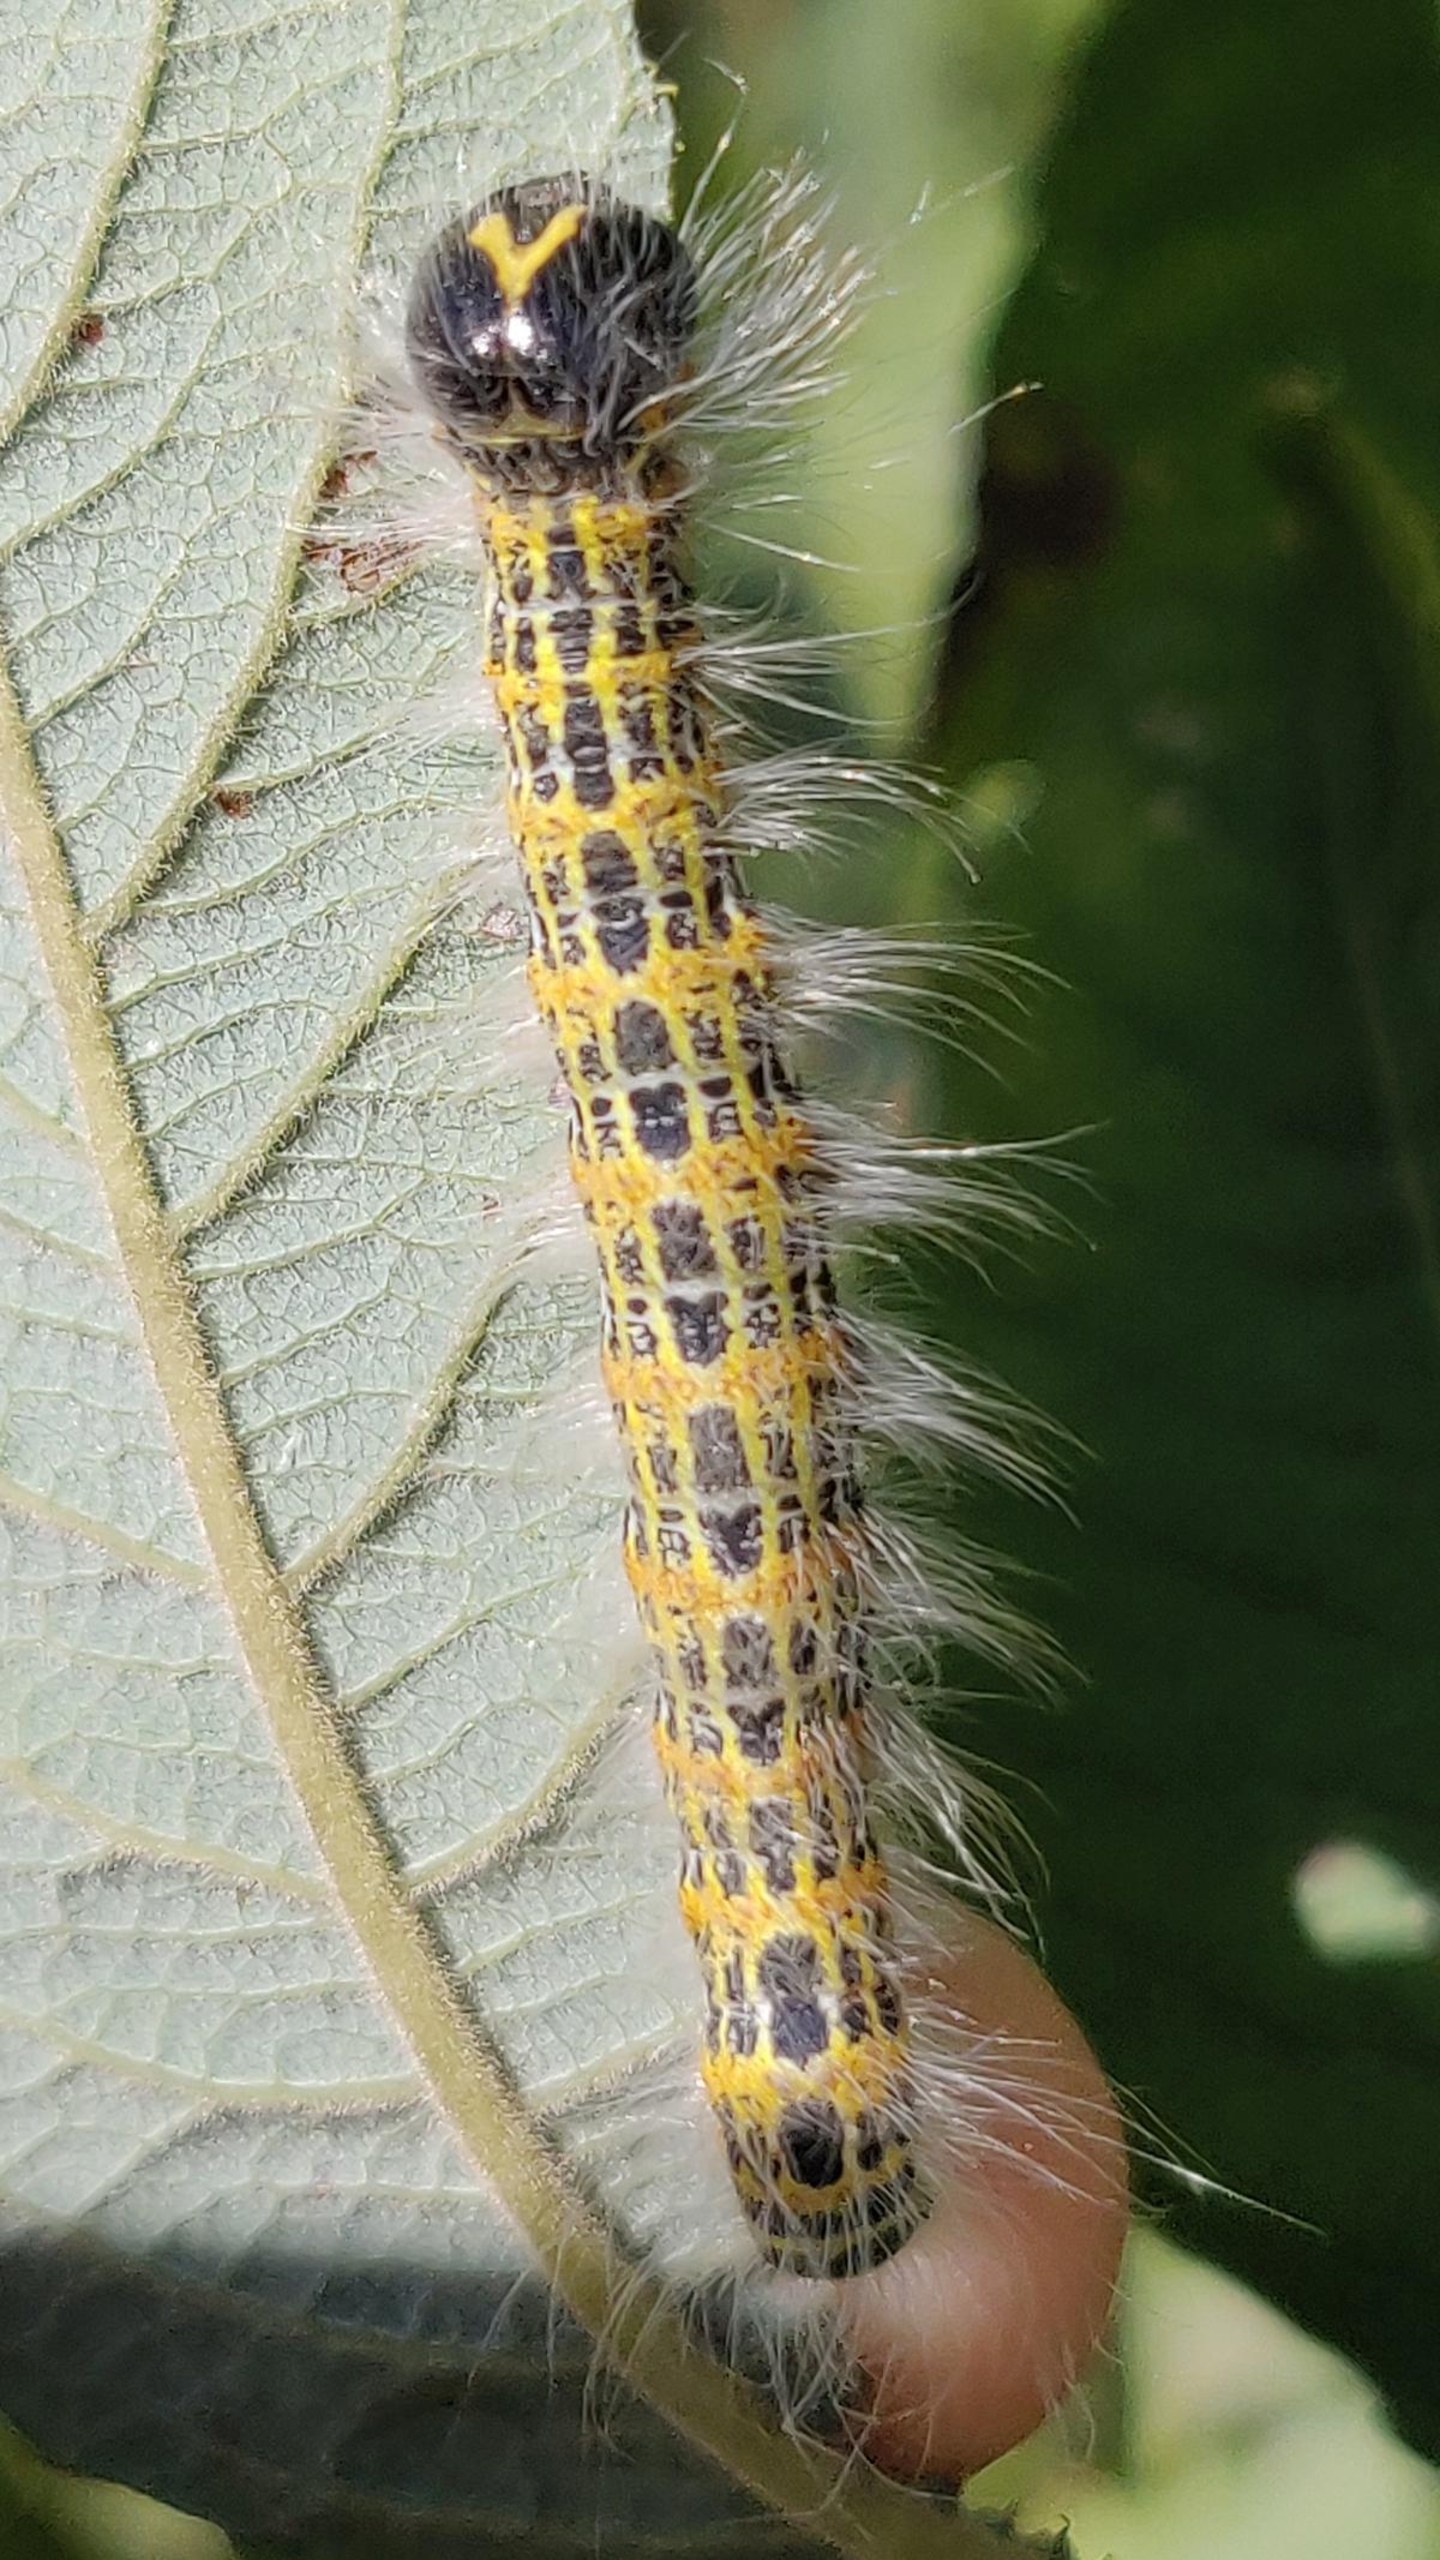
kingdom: Animalia
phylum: Arthropoda
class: Insecta
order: Lepidoptera
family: Notodontidae
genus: Phalera
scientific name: Phalera bucephala
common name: Måneplet
